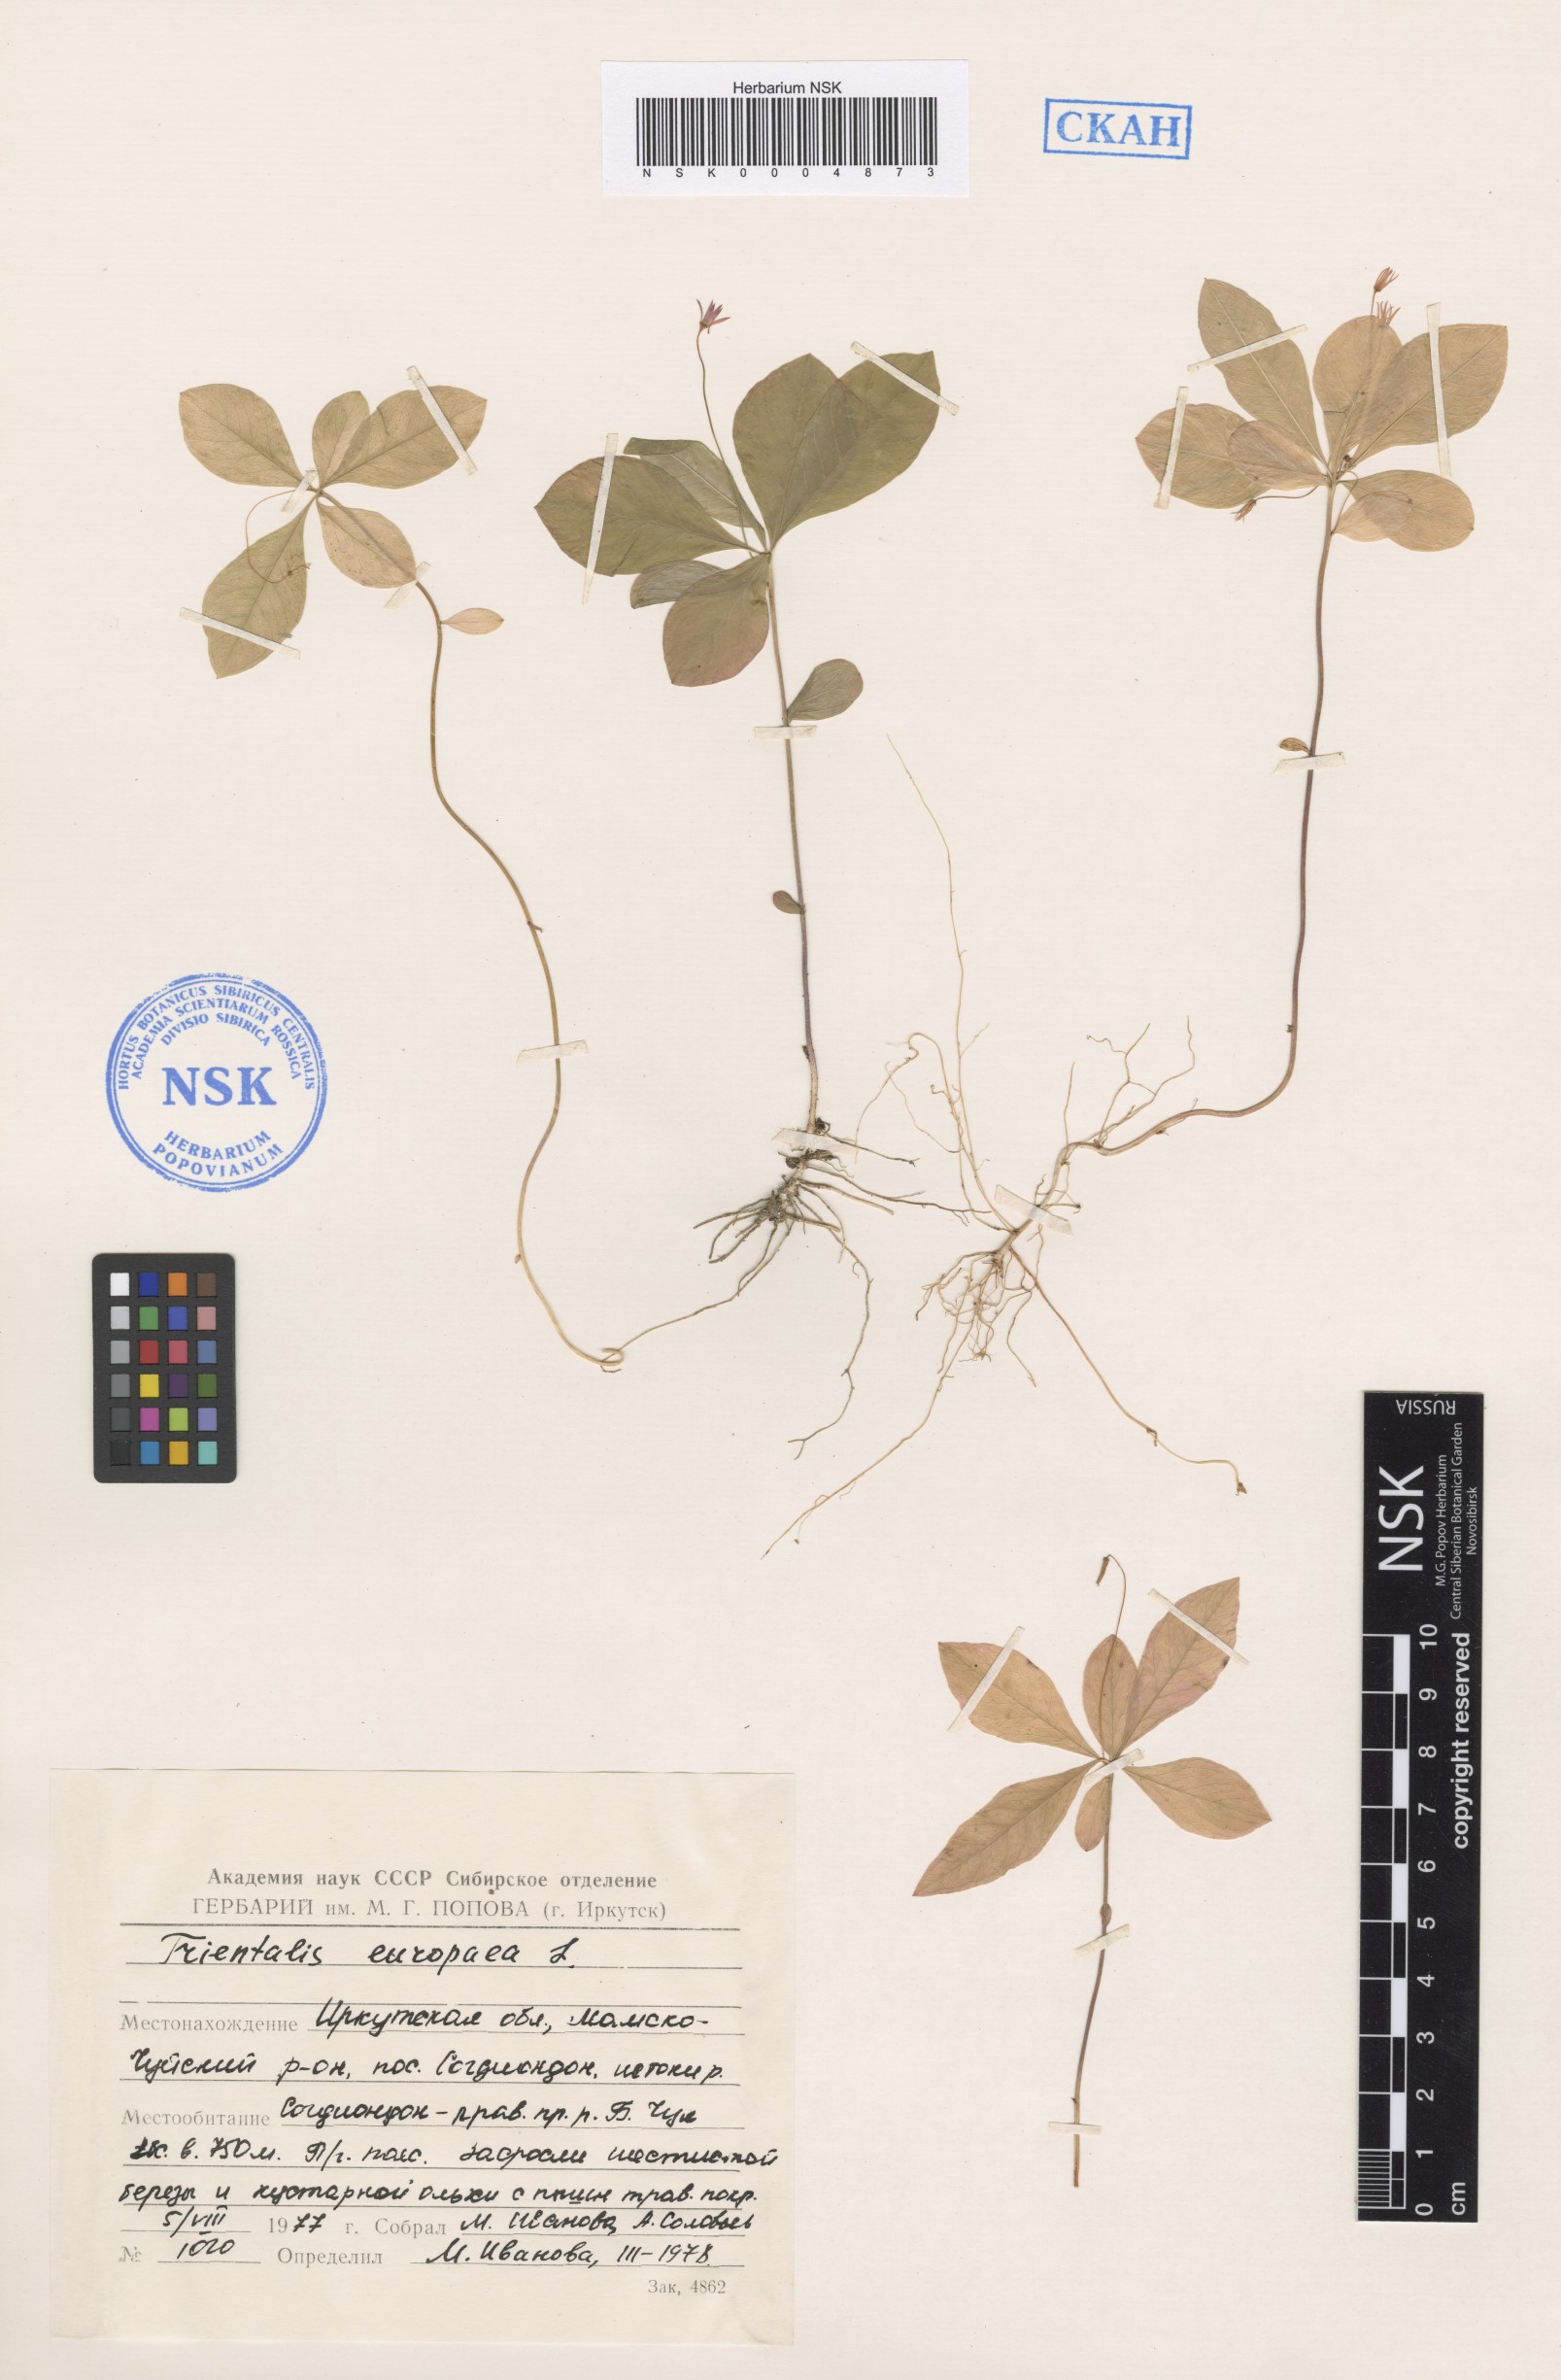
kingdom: Plantae
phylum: Tracheophyta
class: Magnoliopsida
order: Ericales
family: Primulaceae
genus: Lysimachia
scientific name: Lysimachia europaea
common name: Arctic starflower
